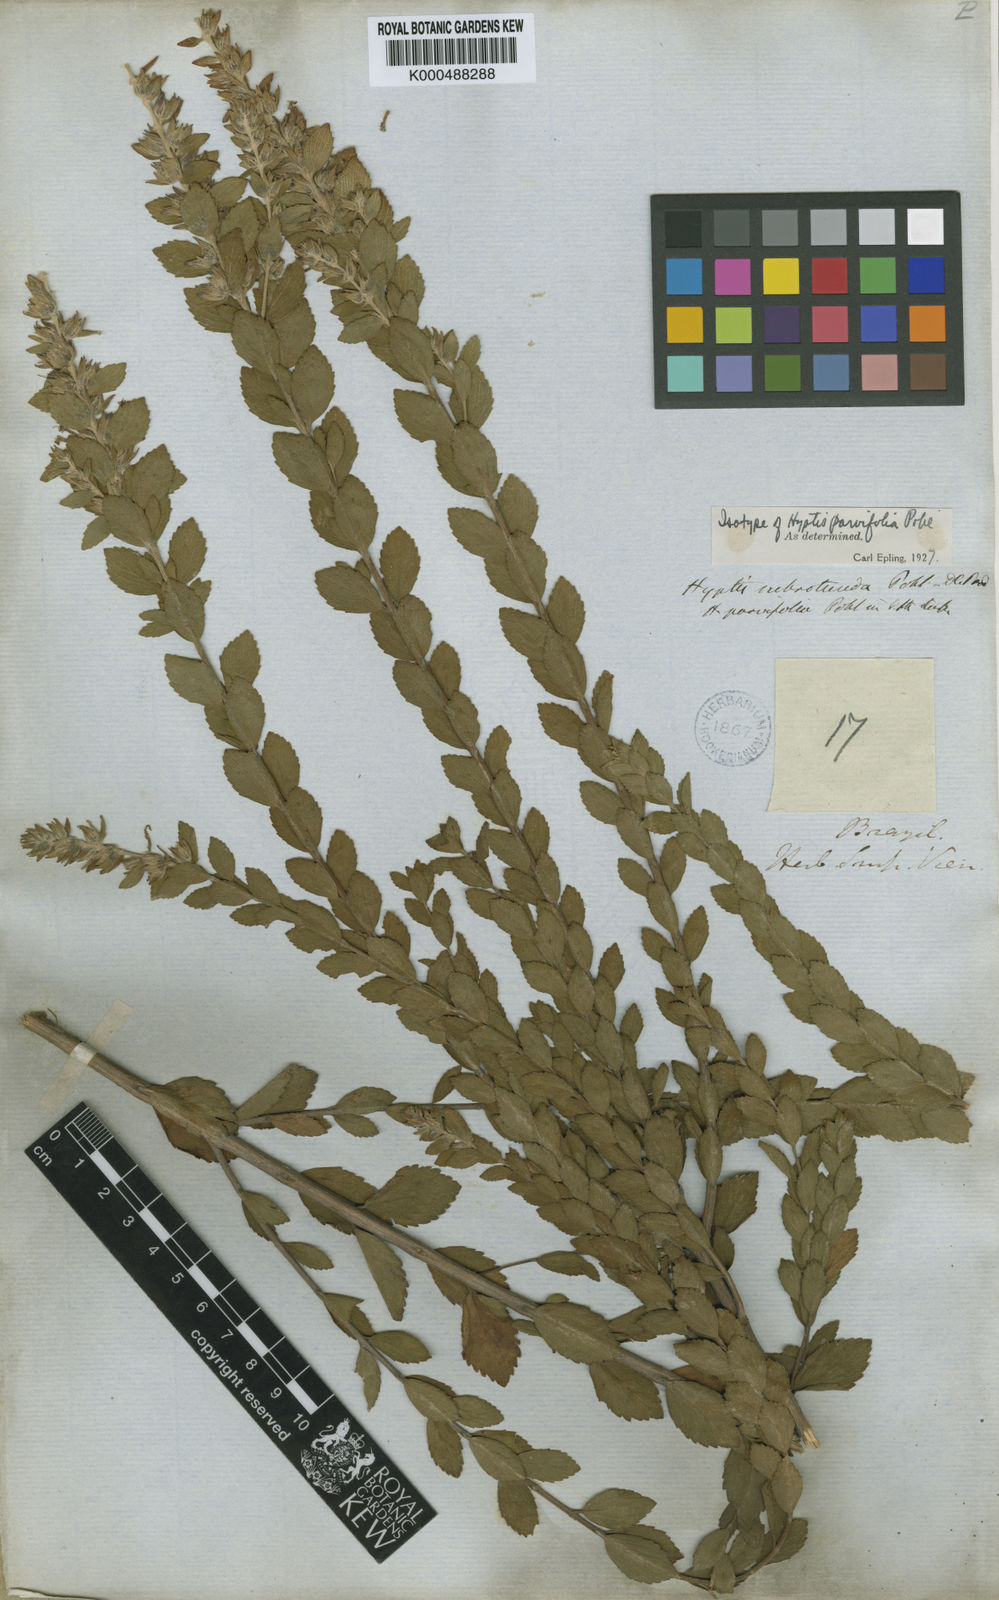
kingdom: Plantae
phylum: Tracheophyta
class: Magnoliopsida
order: Lamiales
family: Lamiaceae
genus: Cantinoa
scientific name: Cantinoa subrotunda
